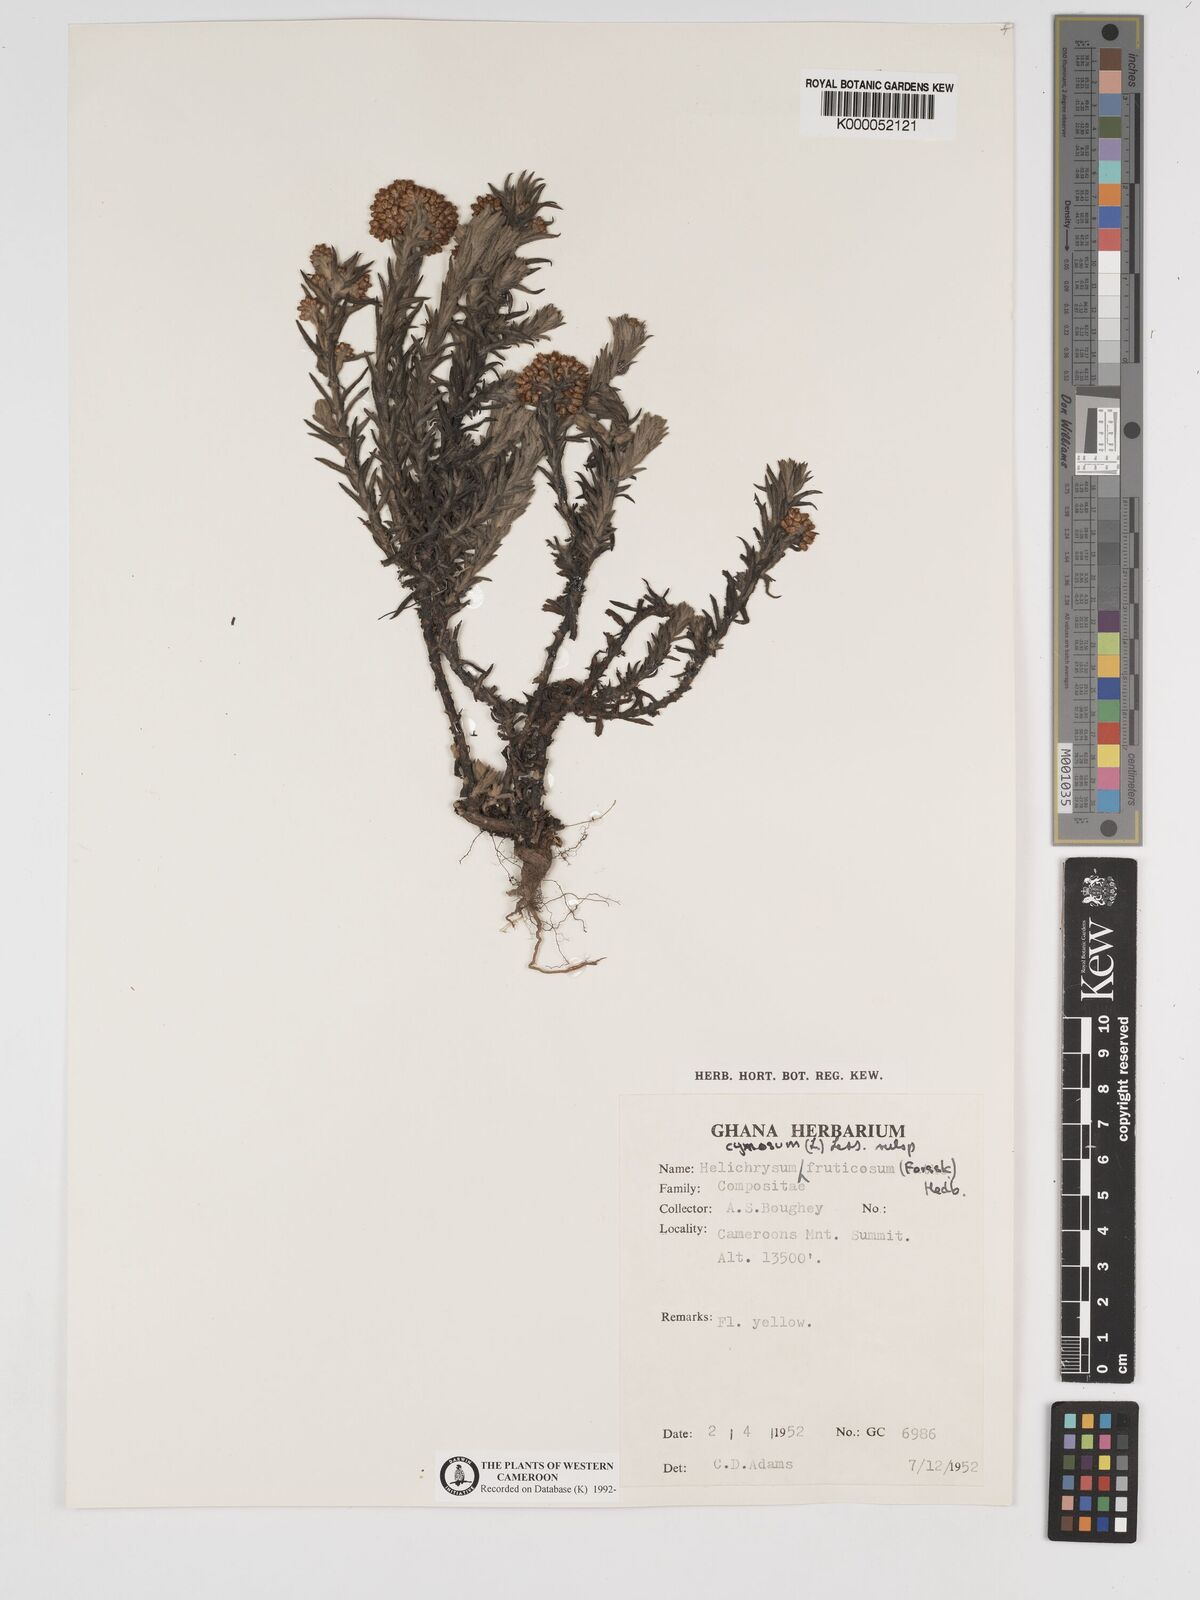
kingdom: Plantae
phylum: Tracheophyta
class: Magnoliopsida
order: Asterales
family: Asteraceae
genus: Helichrysum
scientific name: Helichrysum forskahlii
